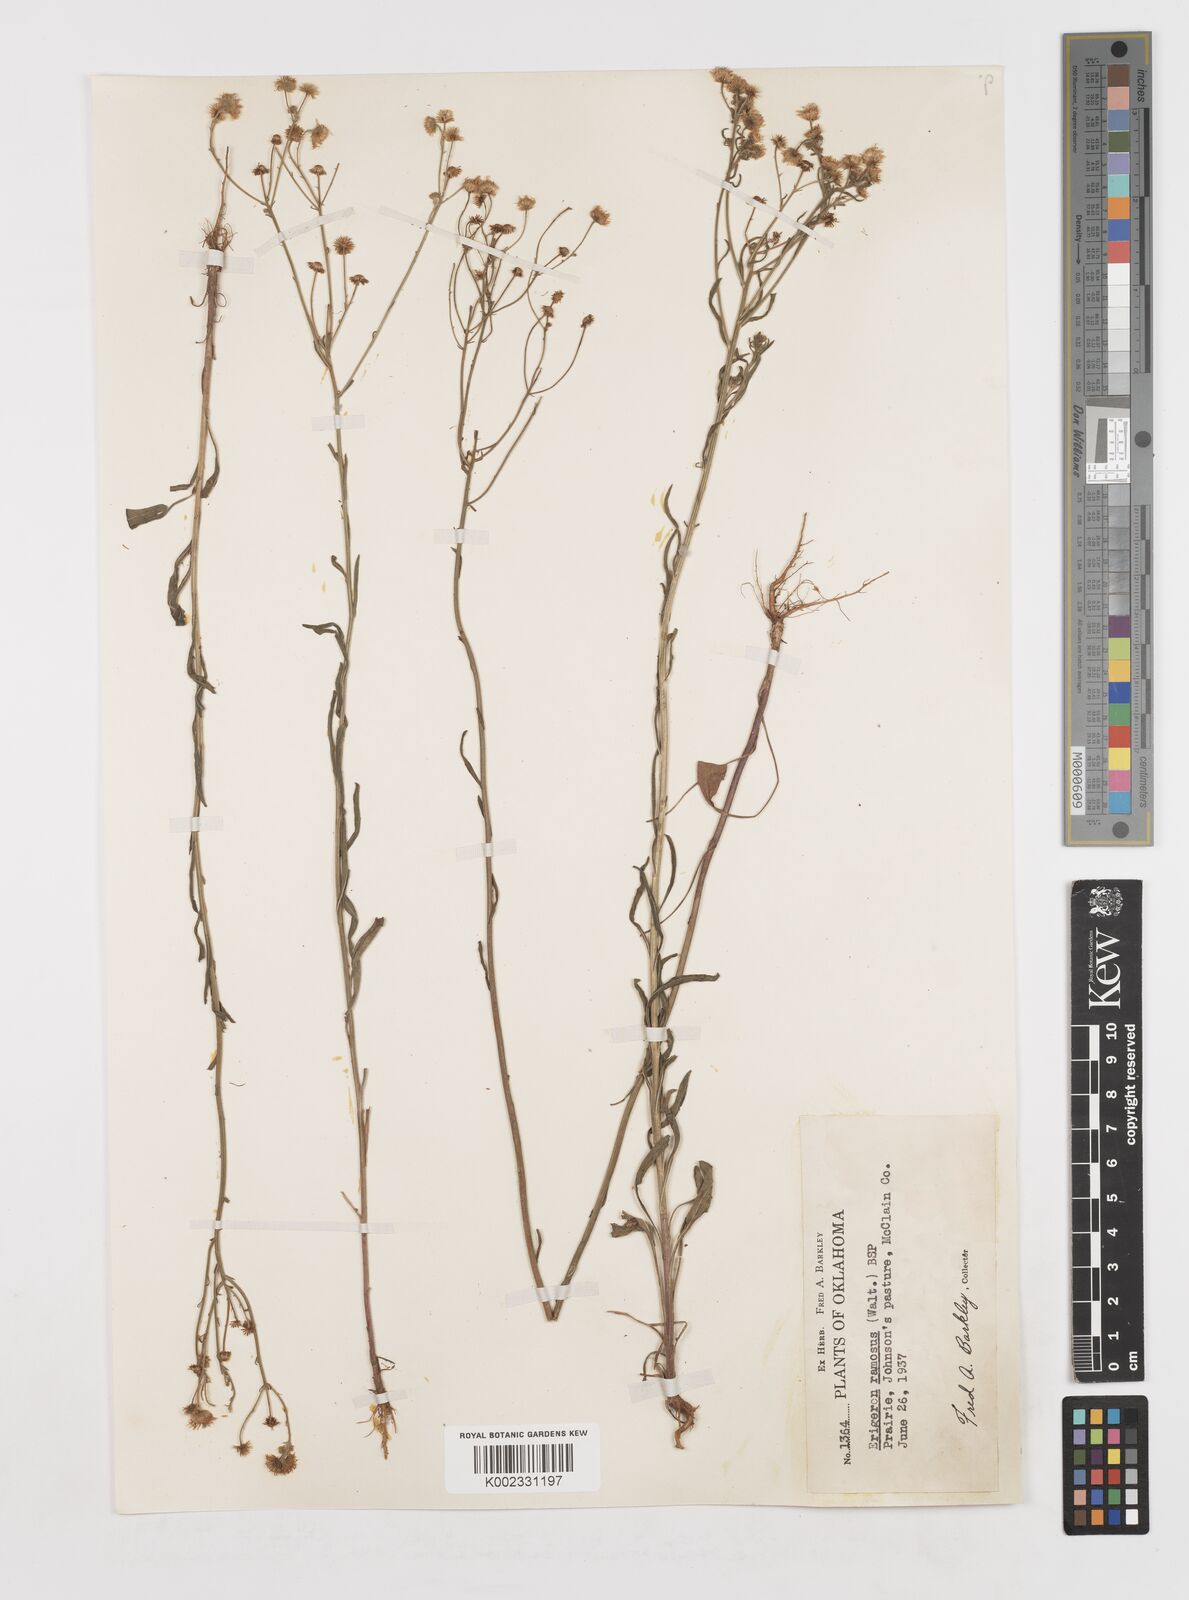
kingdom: Plantae
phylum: Tracheophyta
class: Magnoliopsida
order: Asterales
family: Asteraceae
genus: Erigeron
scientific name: Erigeron strigosus
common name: Common eastern fleabane
